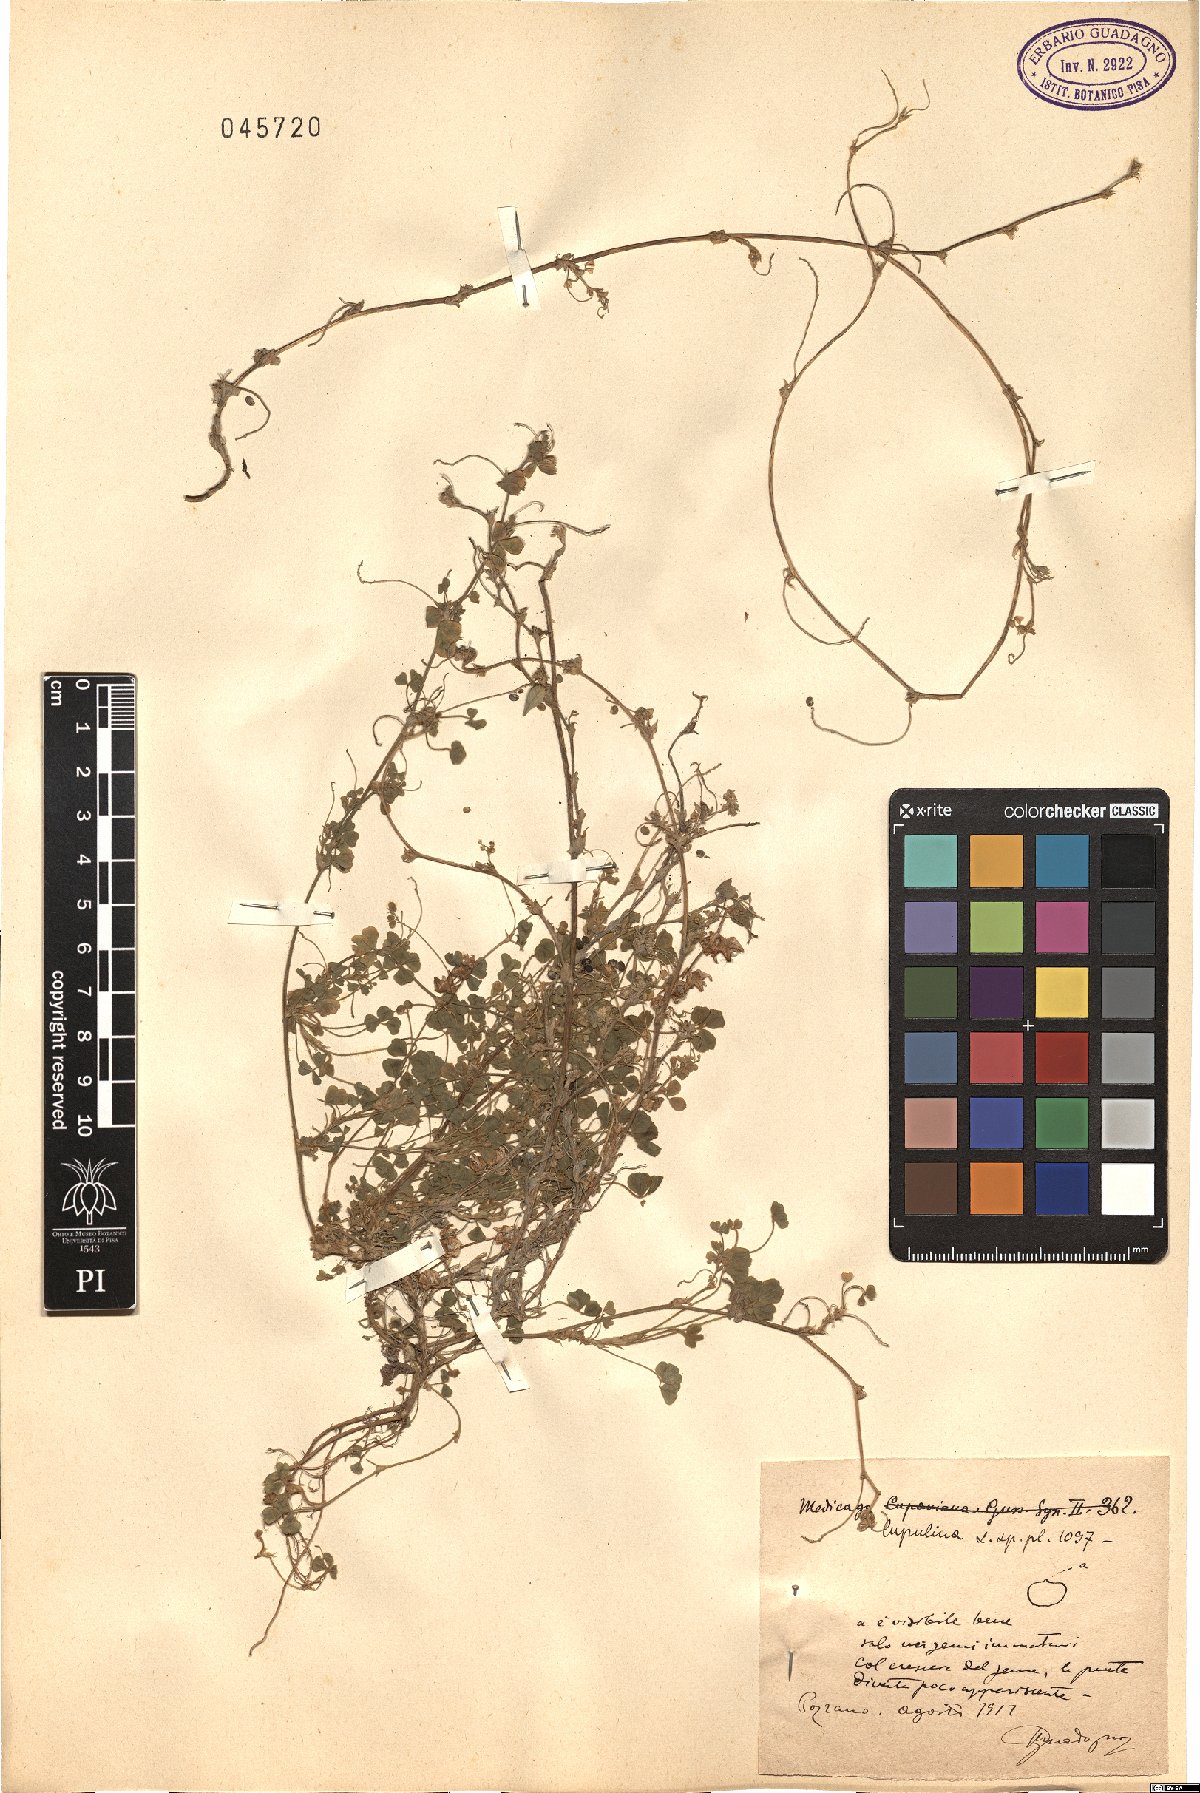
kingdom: Plantae
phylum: Tracheophyta
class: Magnoliopsida
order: Fabales
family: Fabaceae
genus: Medicago
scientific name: Medicago lupulina
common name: Black medick
